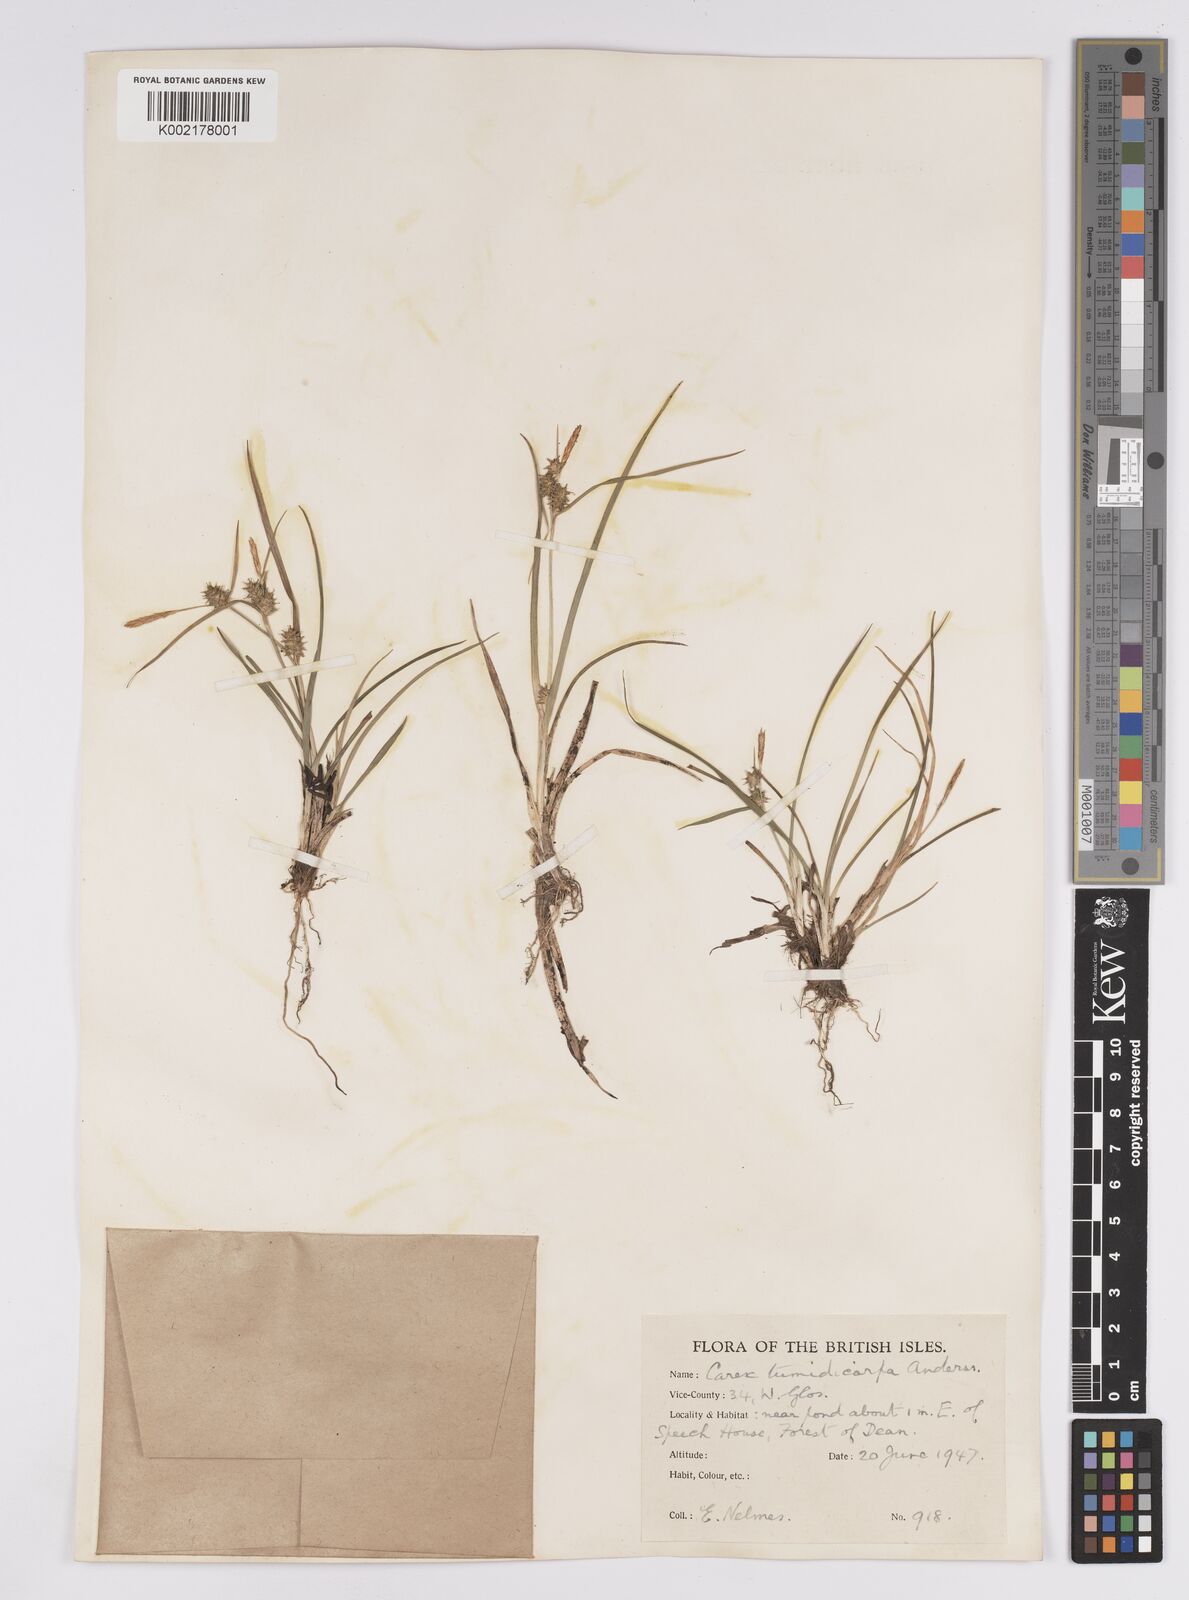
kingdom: Plantae
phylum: Tracheophyta
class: Liliopsida
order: Poales
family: Cyperaceae
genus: Carex
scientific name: Carex demissa
